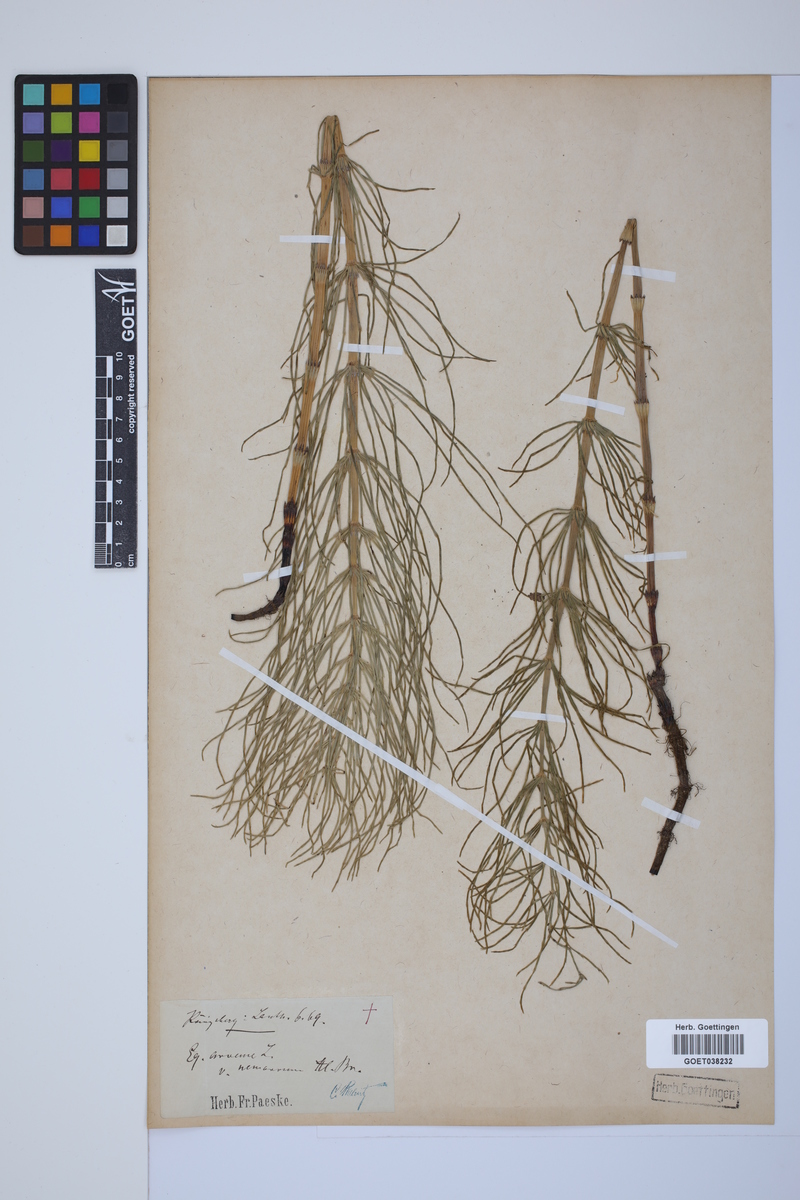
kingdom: Plantae
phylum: Tracheophyta
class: Polypodiopsida
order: Equisetales
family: Equisetaceae
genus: Equisetum
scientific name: Equisetum arvense
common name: Field horsetail
